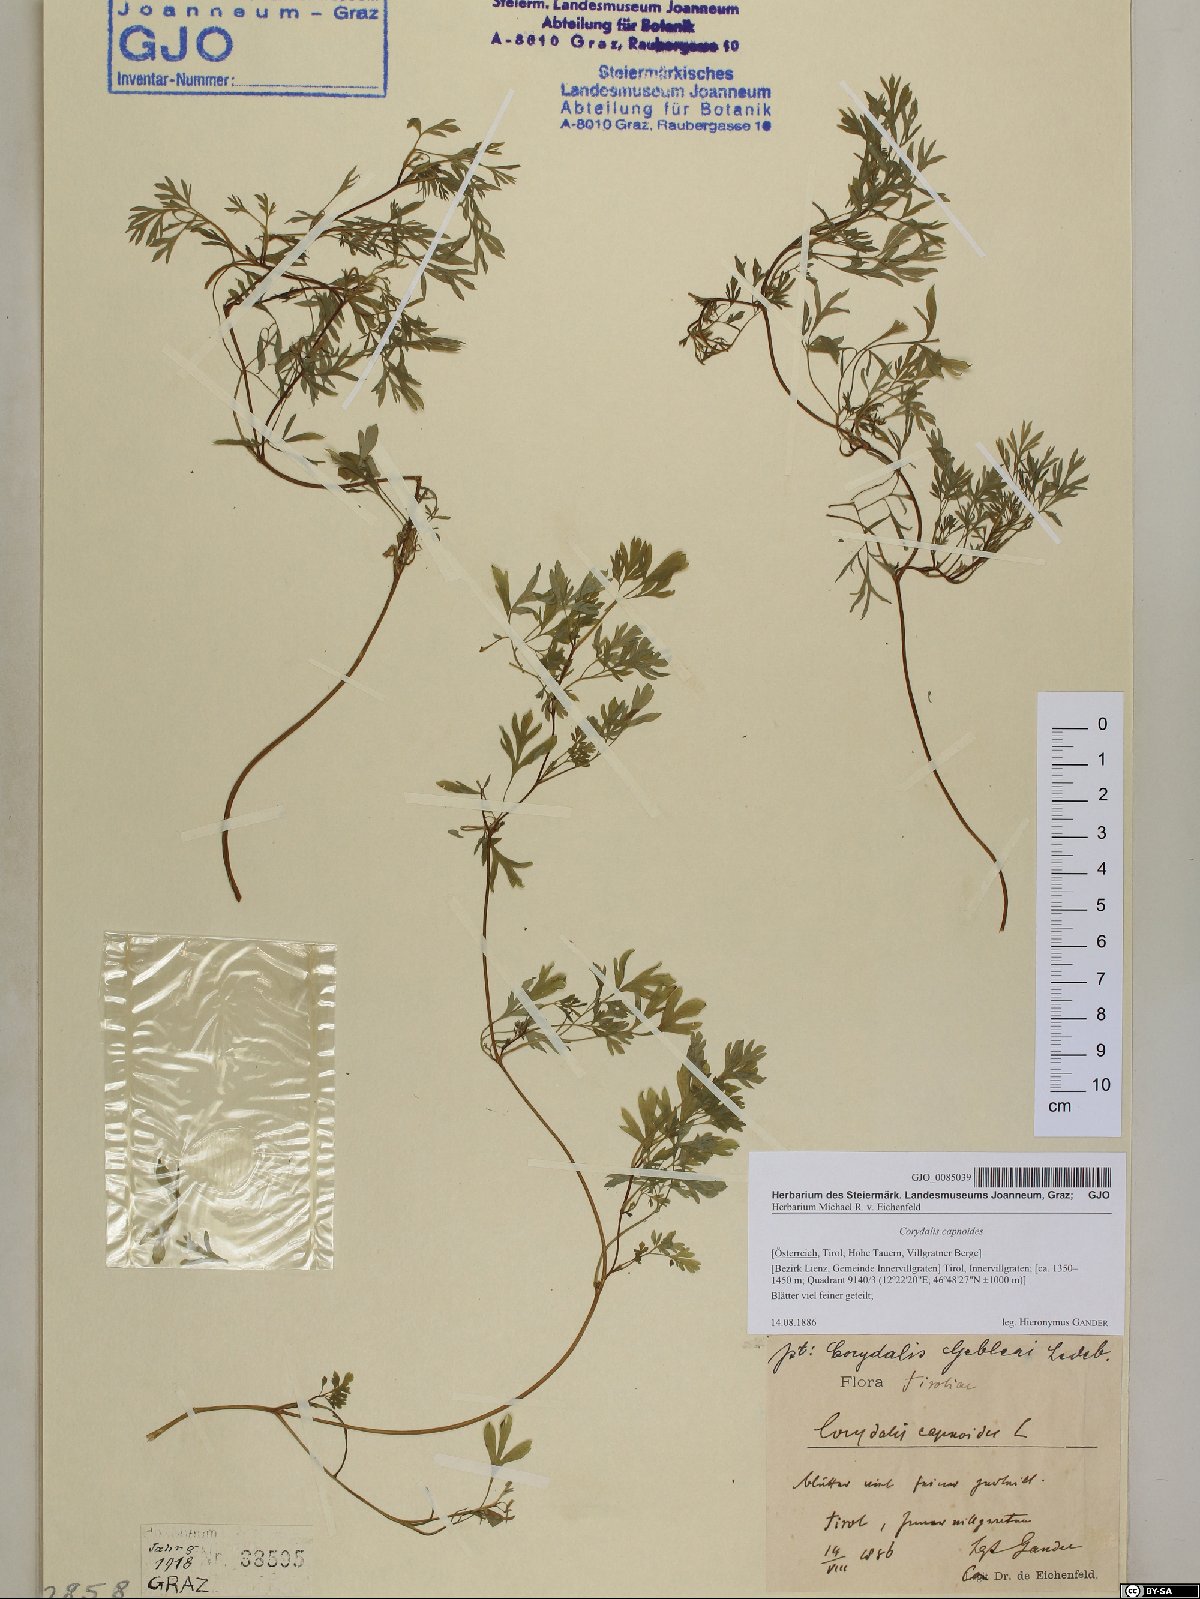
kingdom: Plantae
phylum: Tracheophyta
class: Magnoliopsida
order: Ranunculales
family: Papaveraceae
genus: Corydalis
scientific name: Corydalis capnoides
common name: Beaked corydalis
